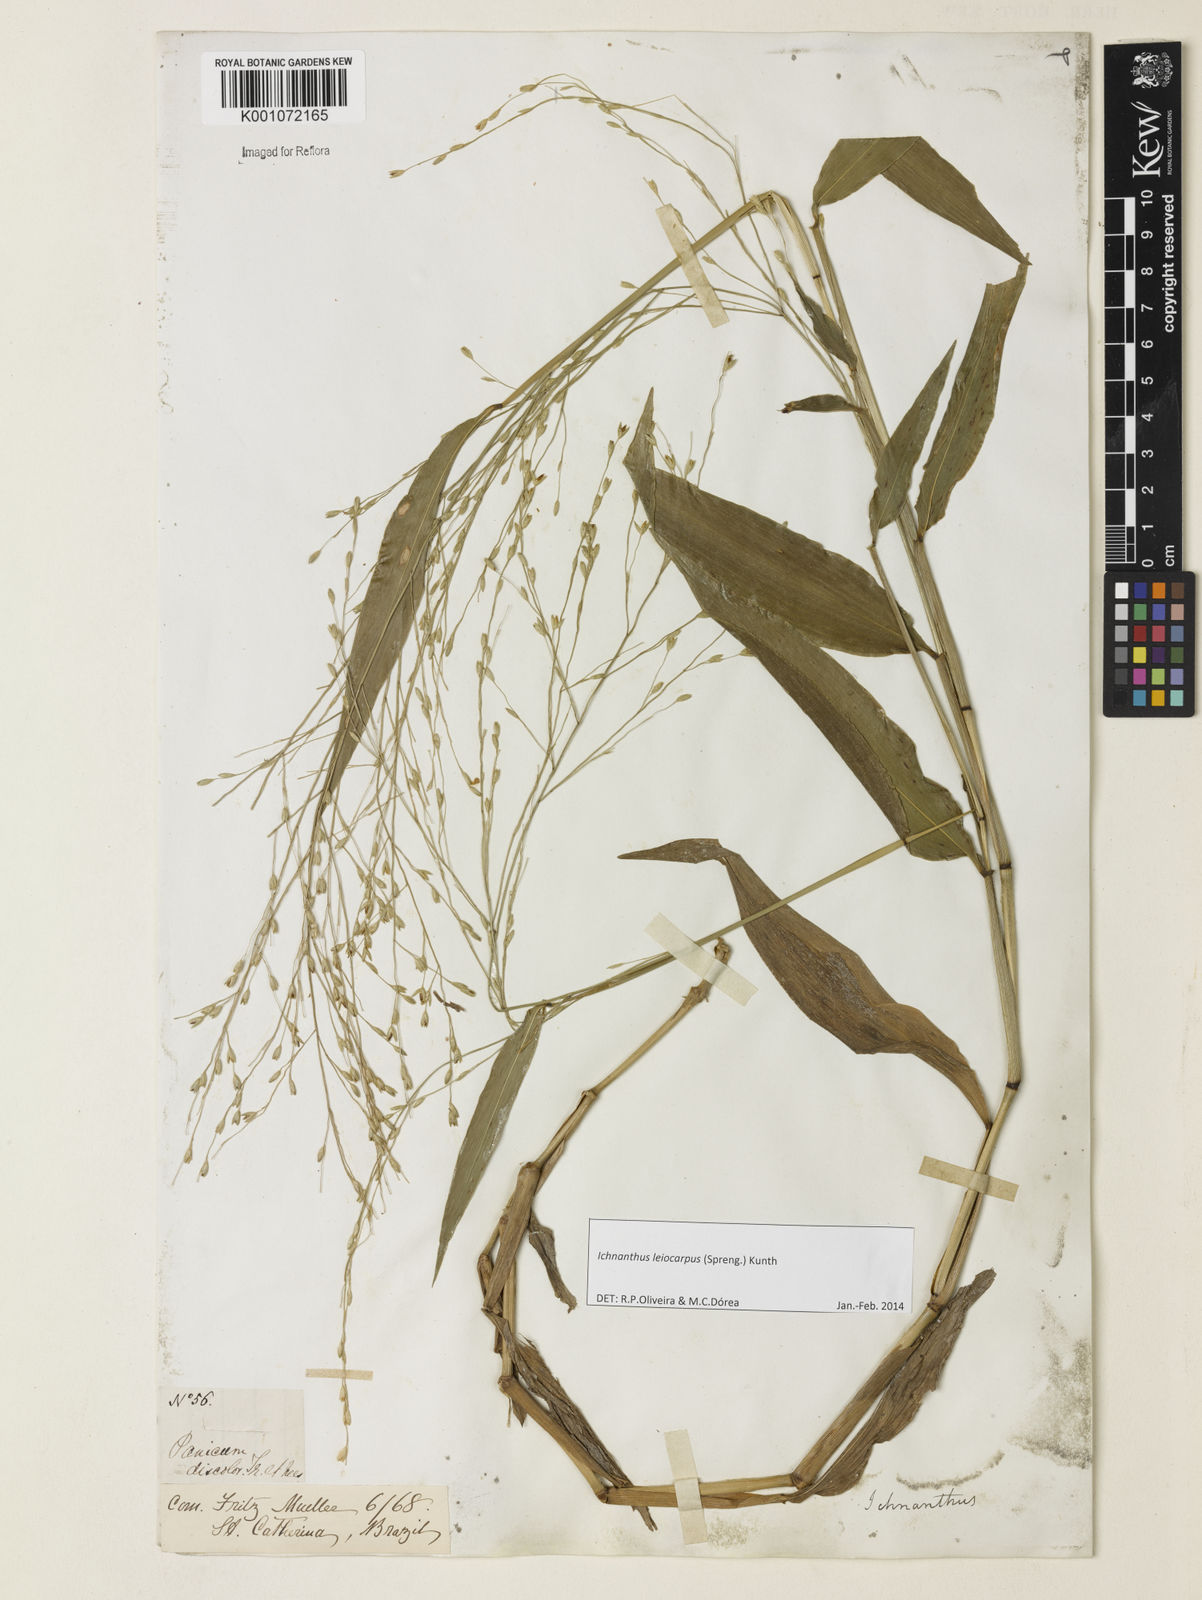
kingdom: Plantae
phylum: Tracheophyta
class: Liliopsida
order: Poales
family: Poaceae
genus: Ichnanthus
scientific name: Ichnanthus leiocarpus
